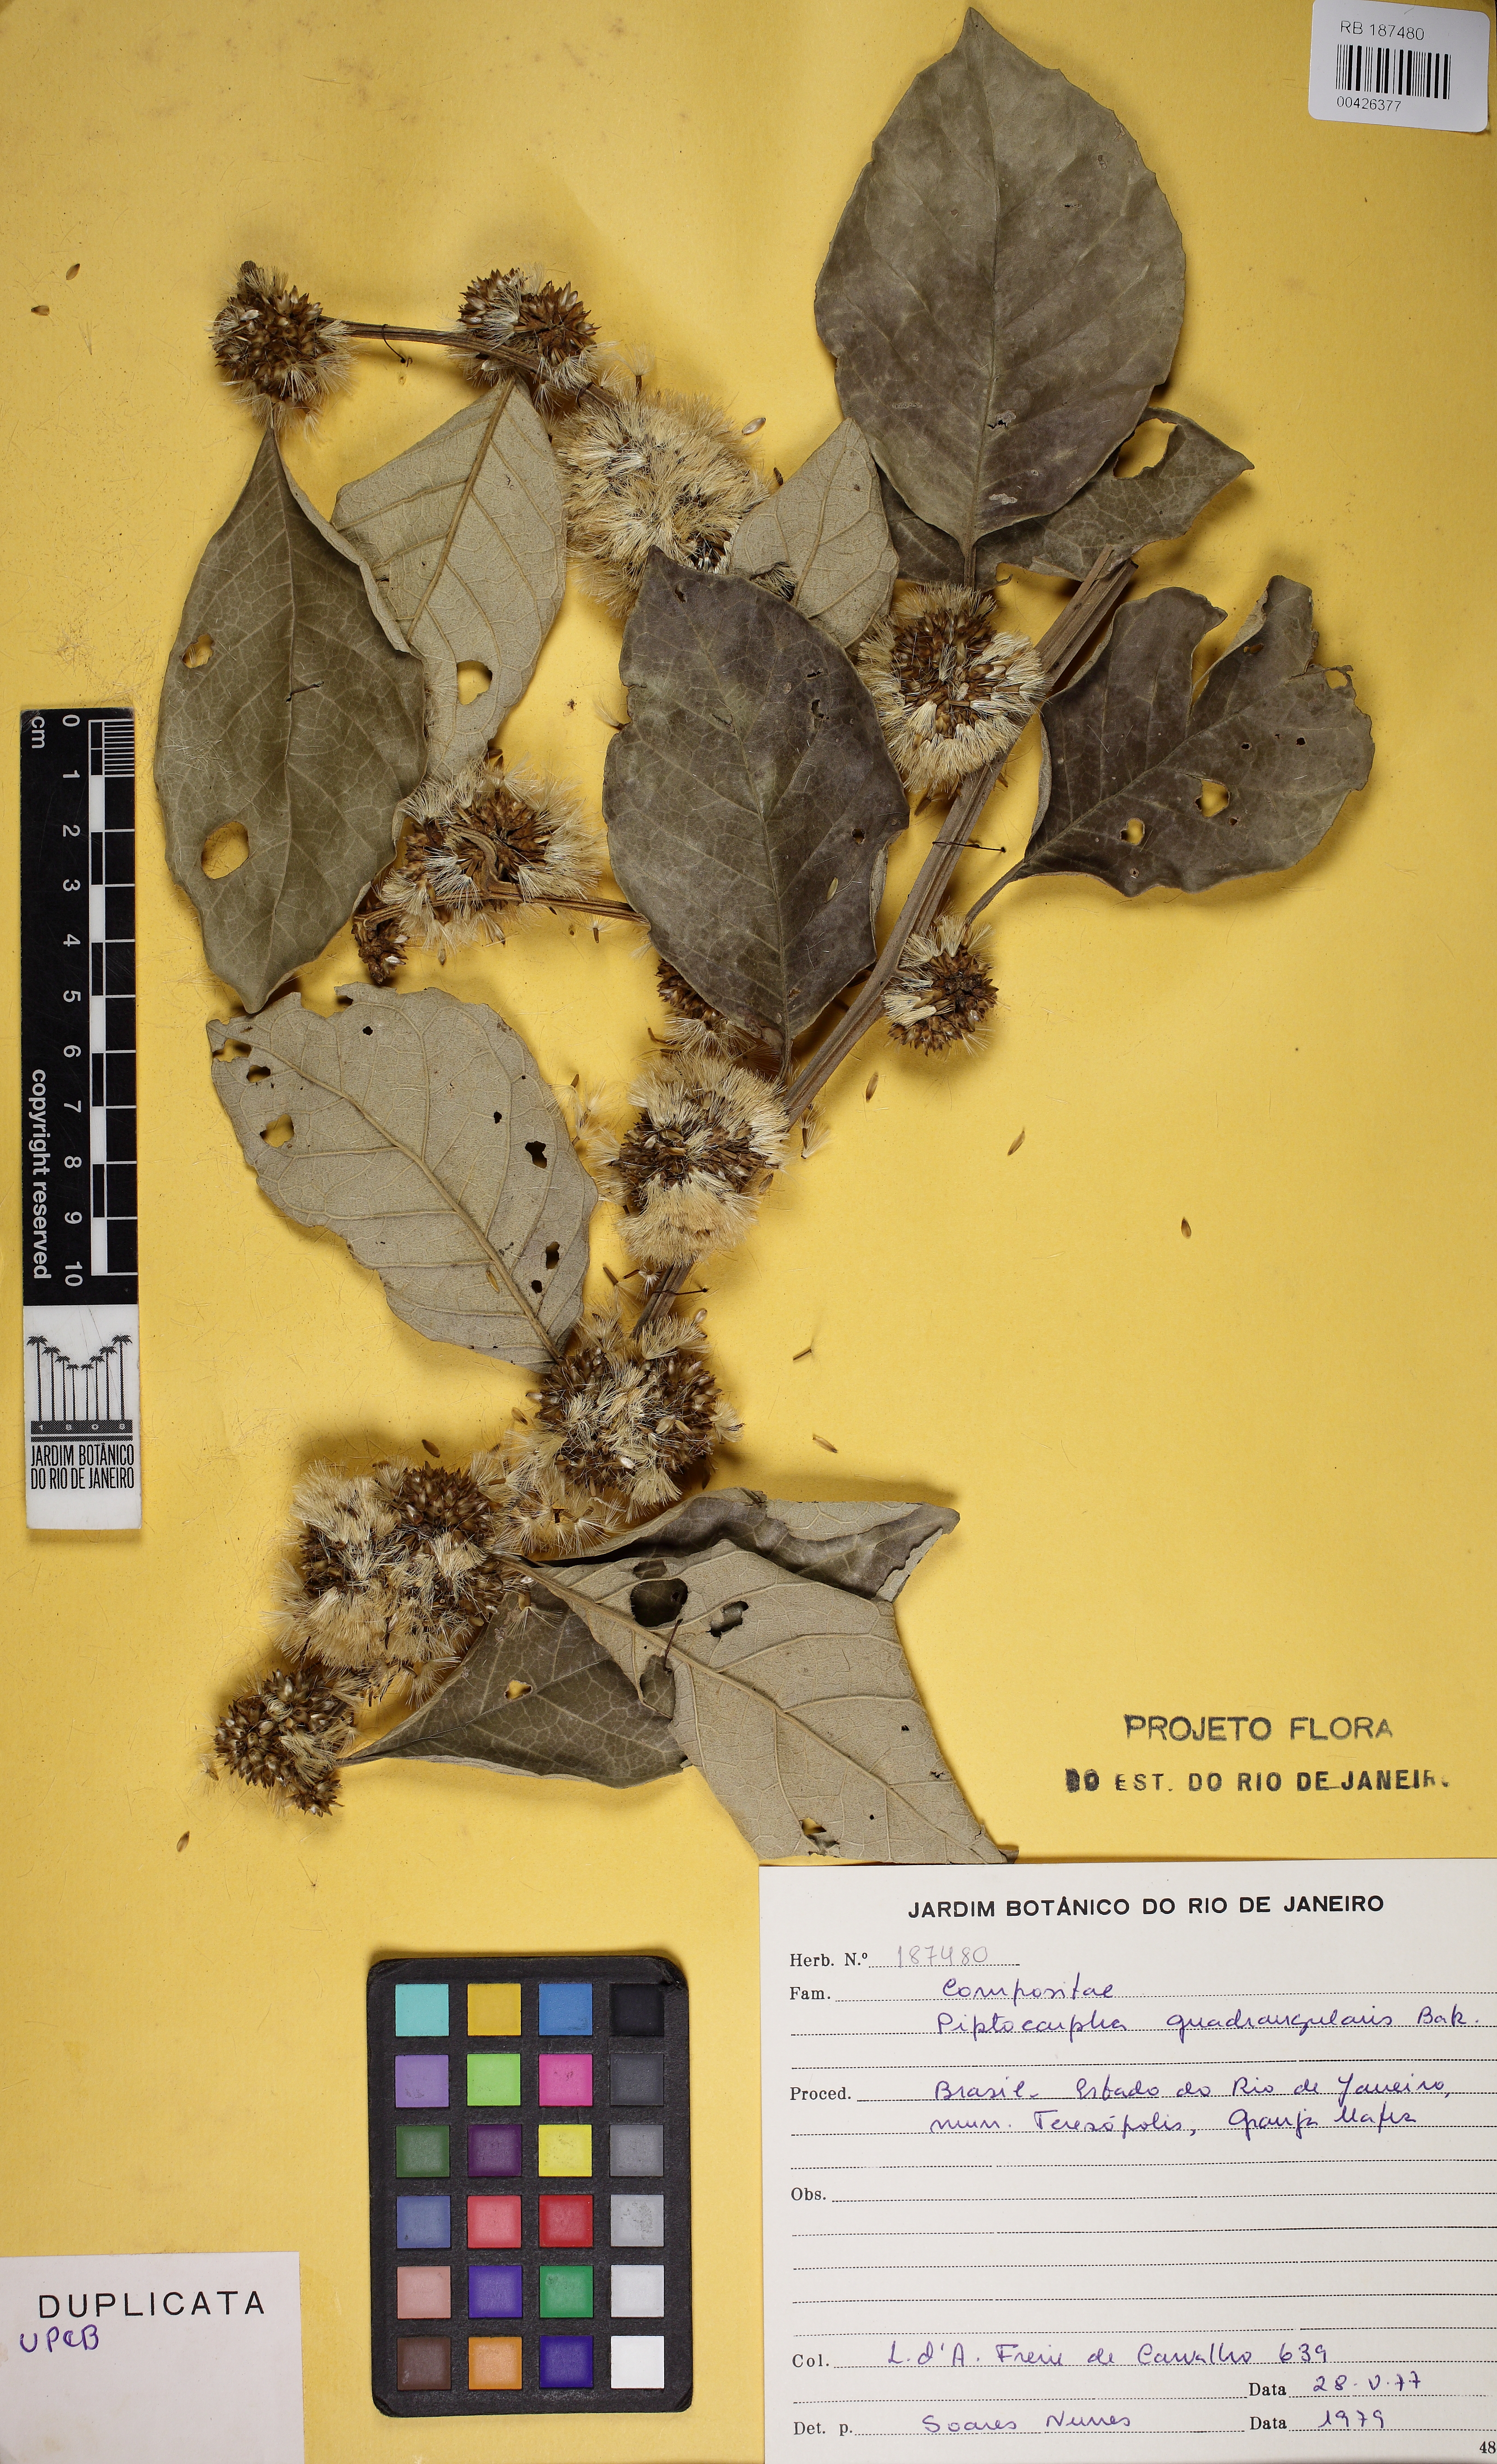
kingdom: Plantae
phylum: Tracheophyta
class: Magnoliopsida
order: Asterales
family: Asteraceae
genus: Piptocarpha
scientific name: Piptocarpha quadrangularis
